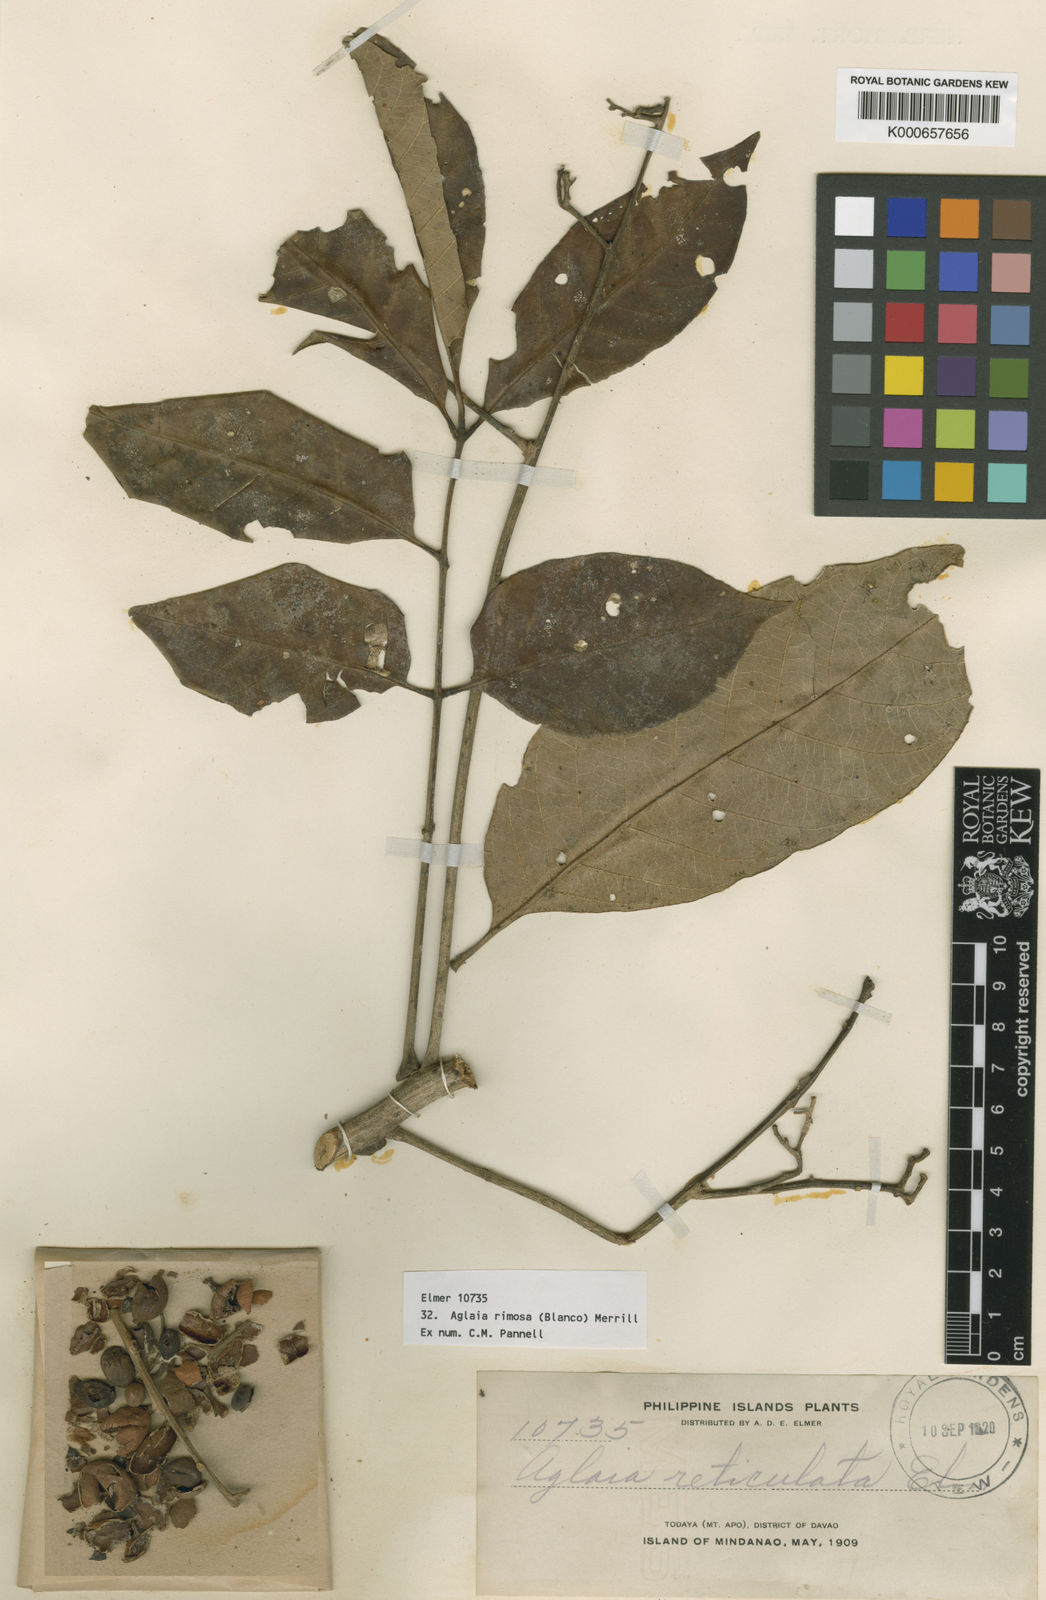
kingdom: Plantae
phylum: Tracheophyta
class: Magnoliopsida
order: Sapindales
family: Meliaceae
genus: Aglaia
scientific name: Aglaia rimosa
